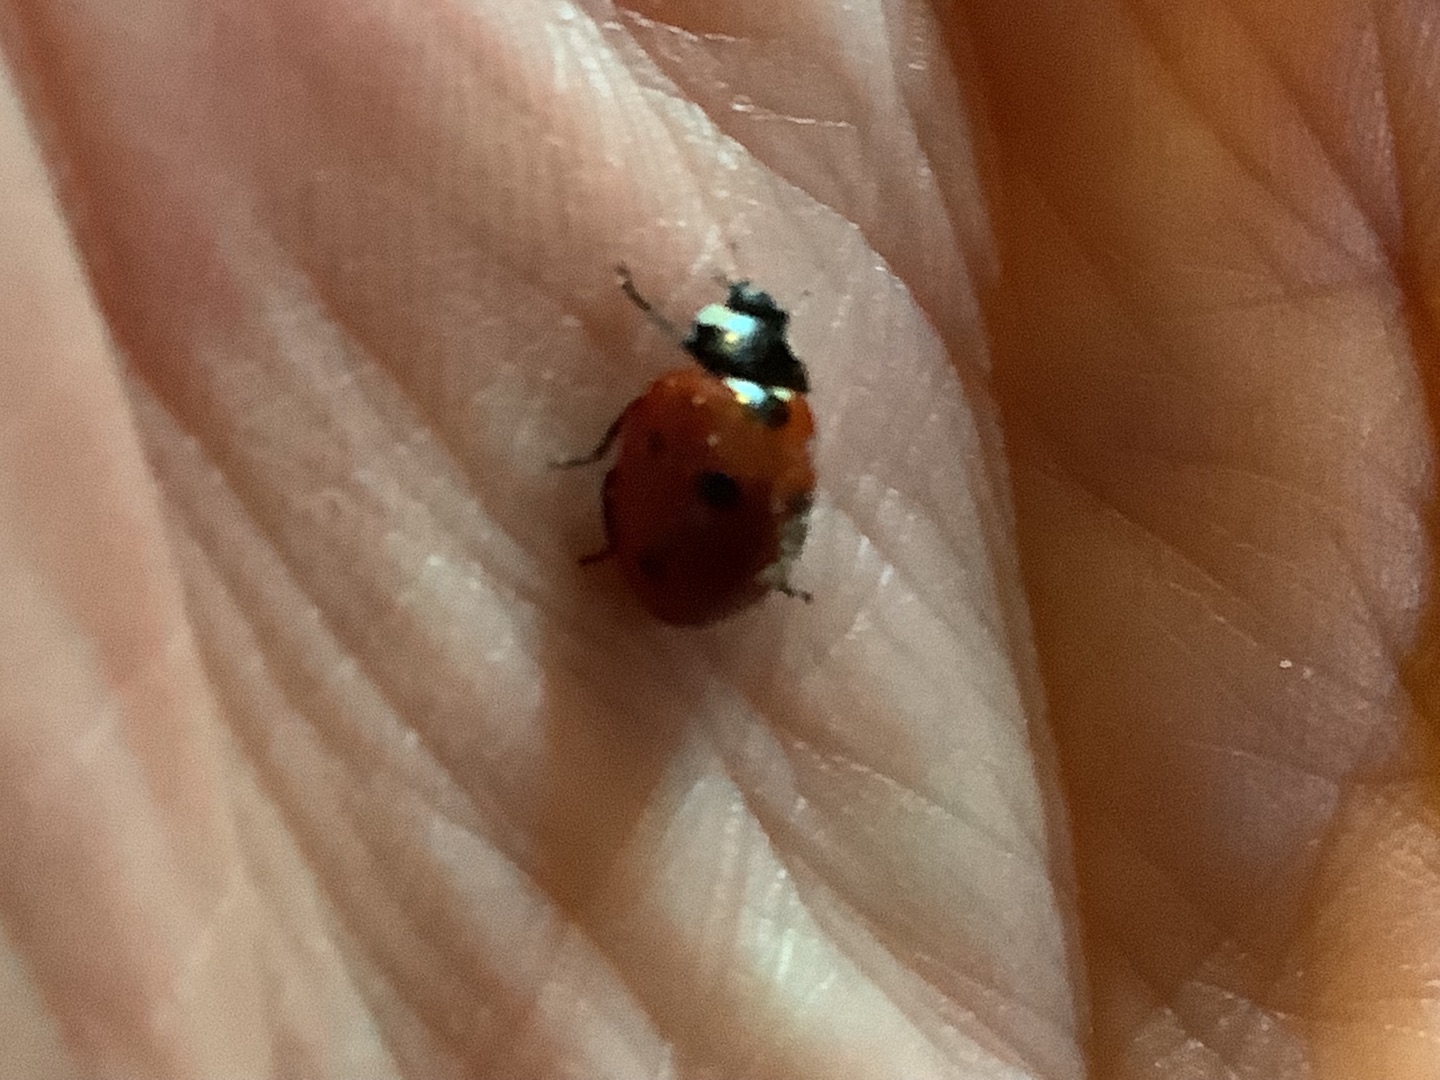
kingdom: Animalia
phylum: Arthropoda
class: Insecta
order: Coleoptera
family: Coccinellidae
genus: Coccinella
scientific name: Coccinella septempunctata
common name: Syvplettet mariehøne
